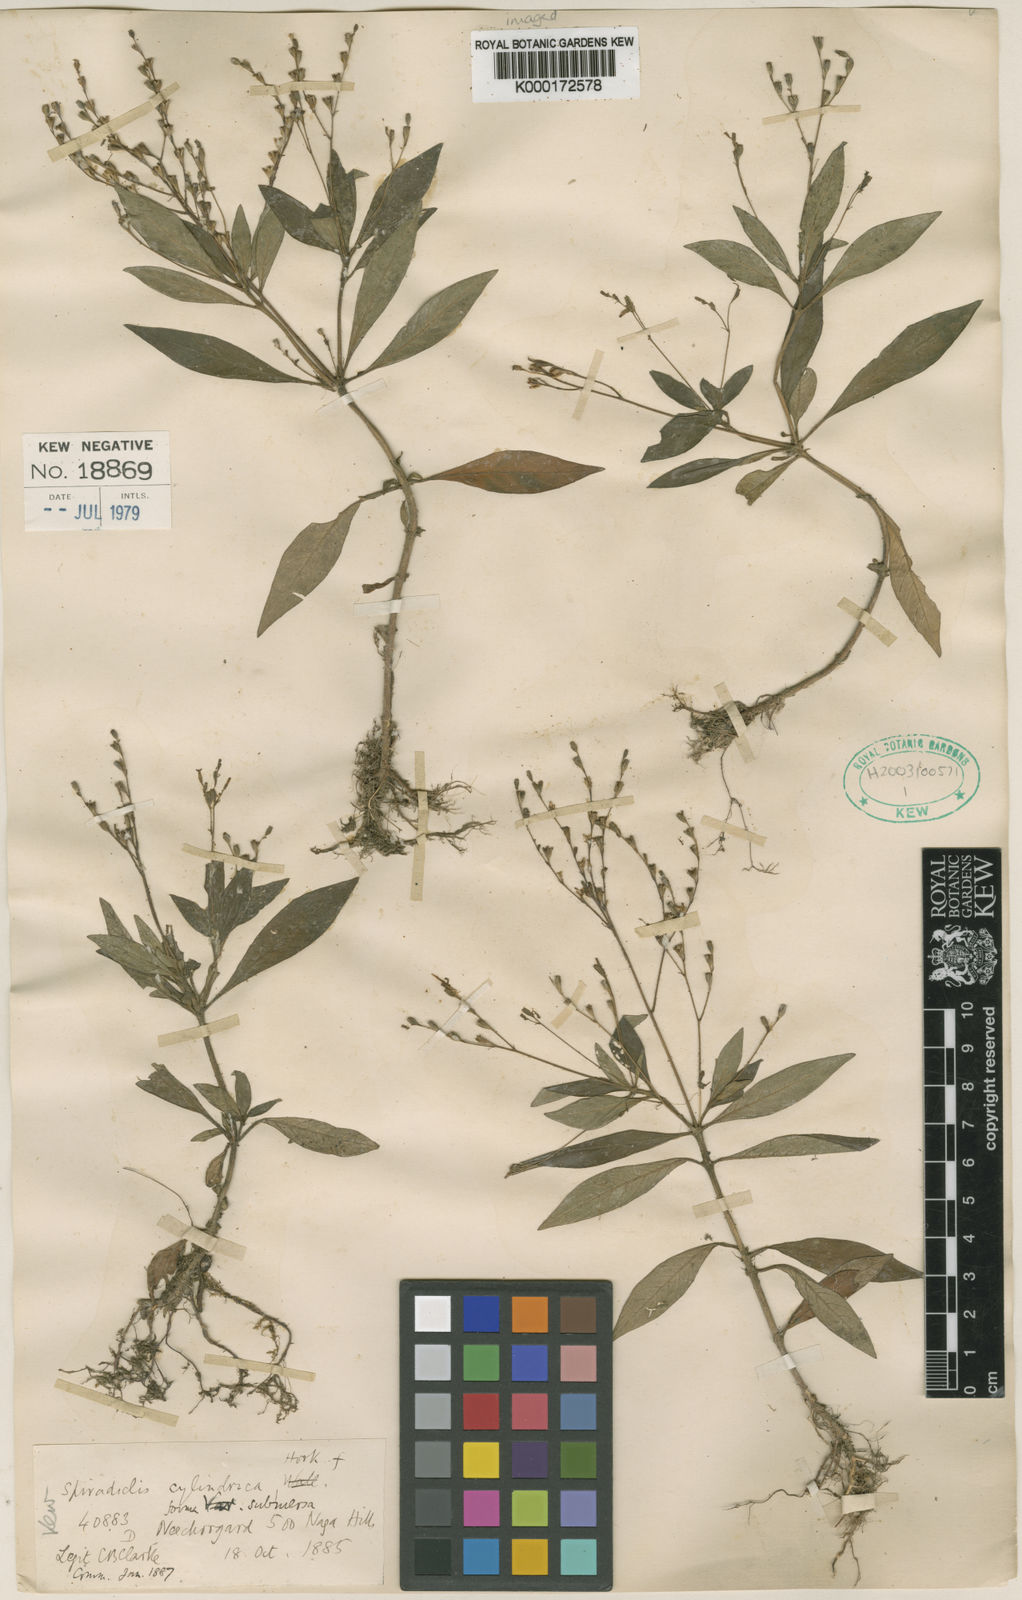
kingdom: Plantae
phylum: Tracheophyta
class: Magnoliopsida
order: Gentianales
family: Rubiaceae
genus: Ophiorrhiza
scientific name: Ophiorrhiza arunachalensis
